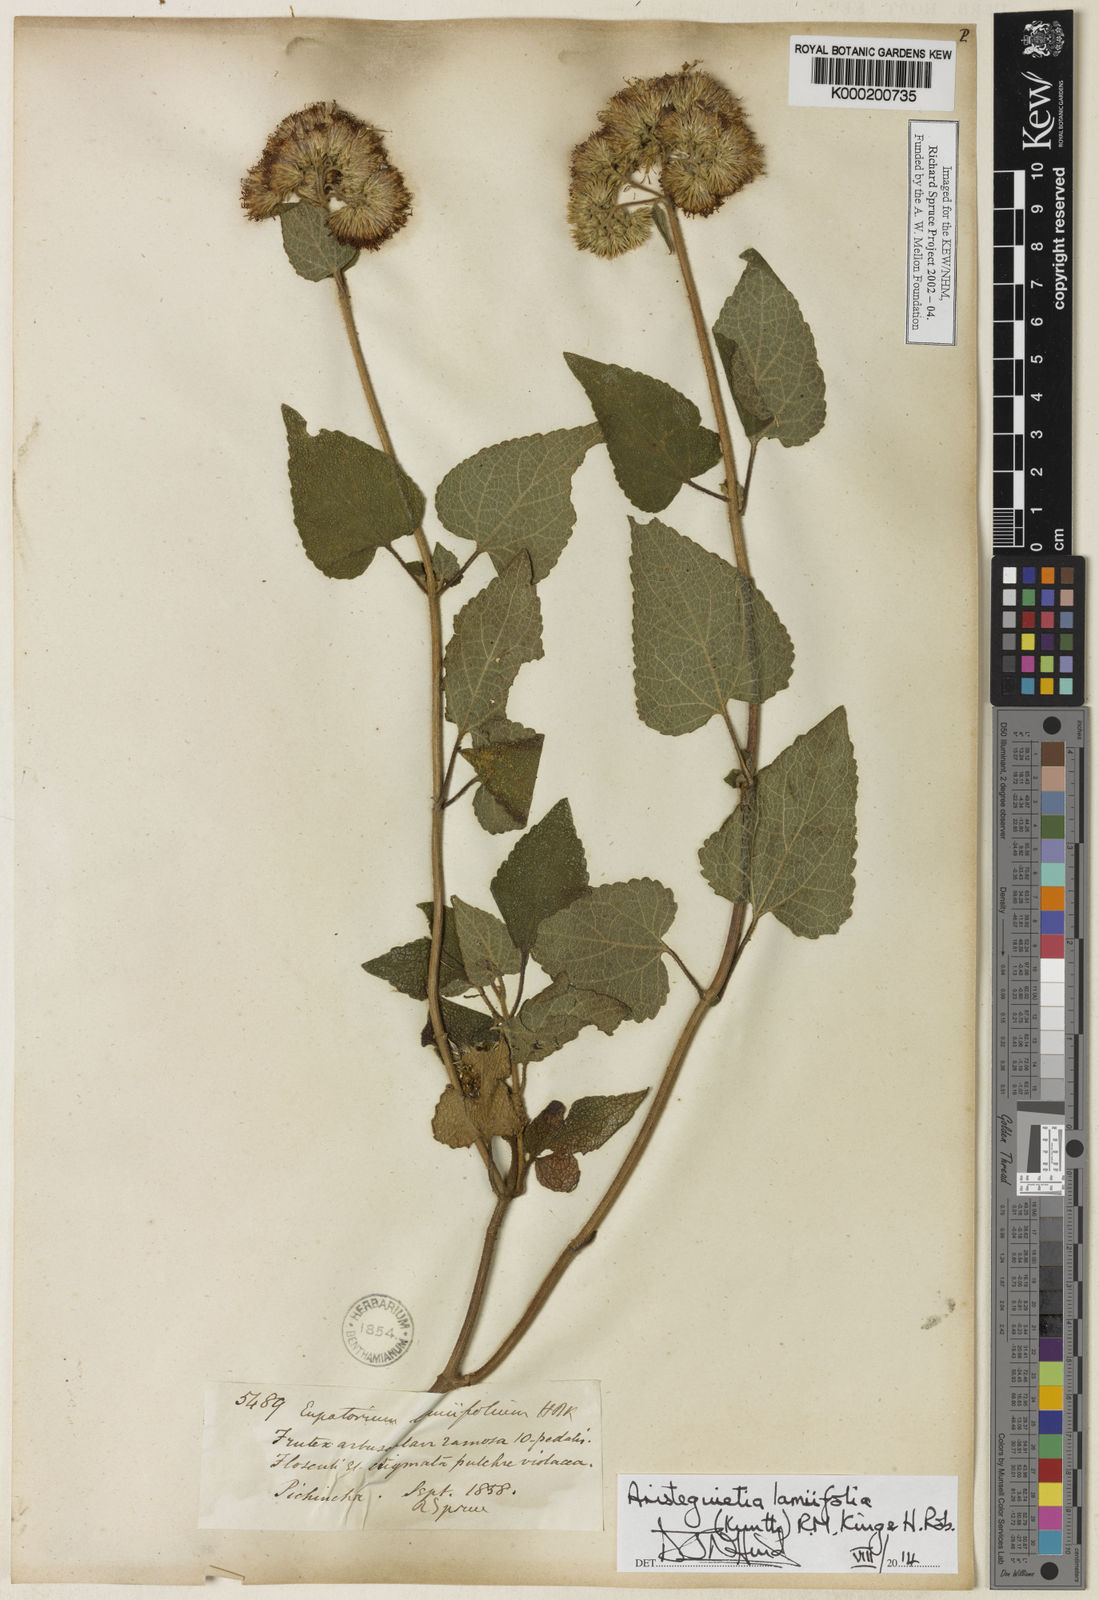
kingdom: Plantae
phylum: Tracheophyta
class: Magnoliopsida
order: Asterales
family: Asteraceae
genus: Aristeguietia
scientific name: Aristeguietia lamiifolia
